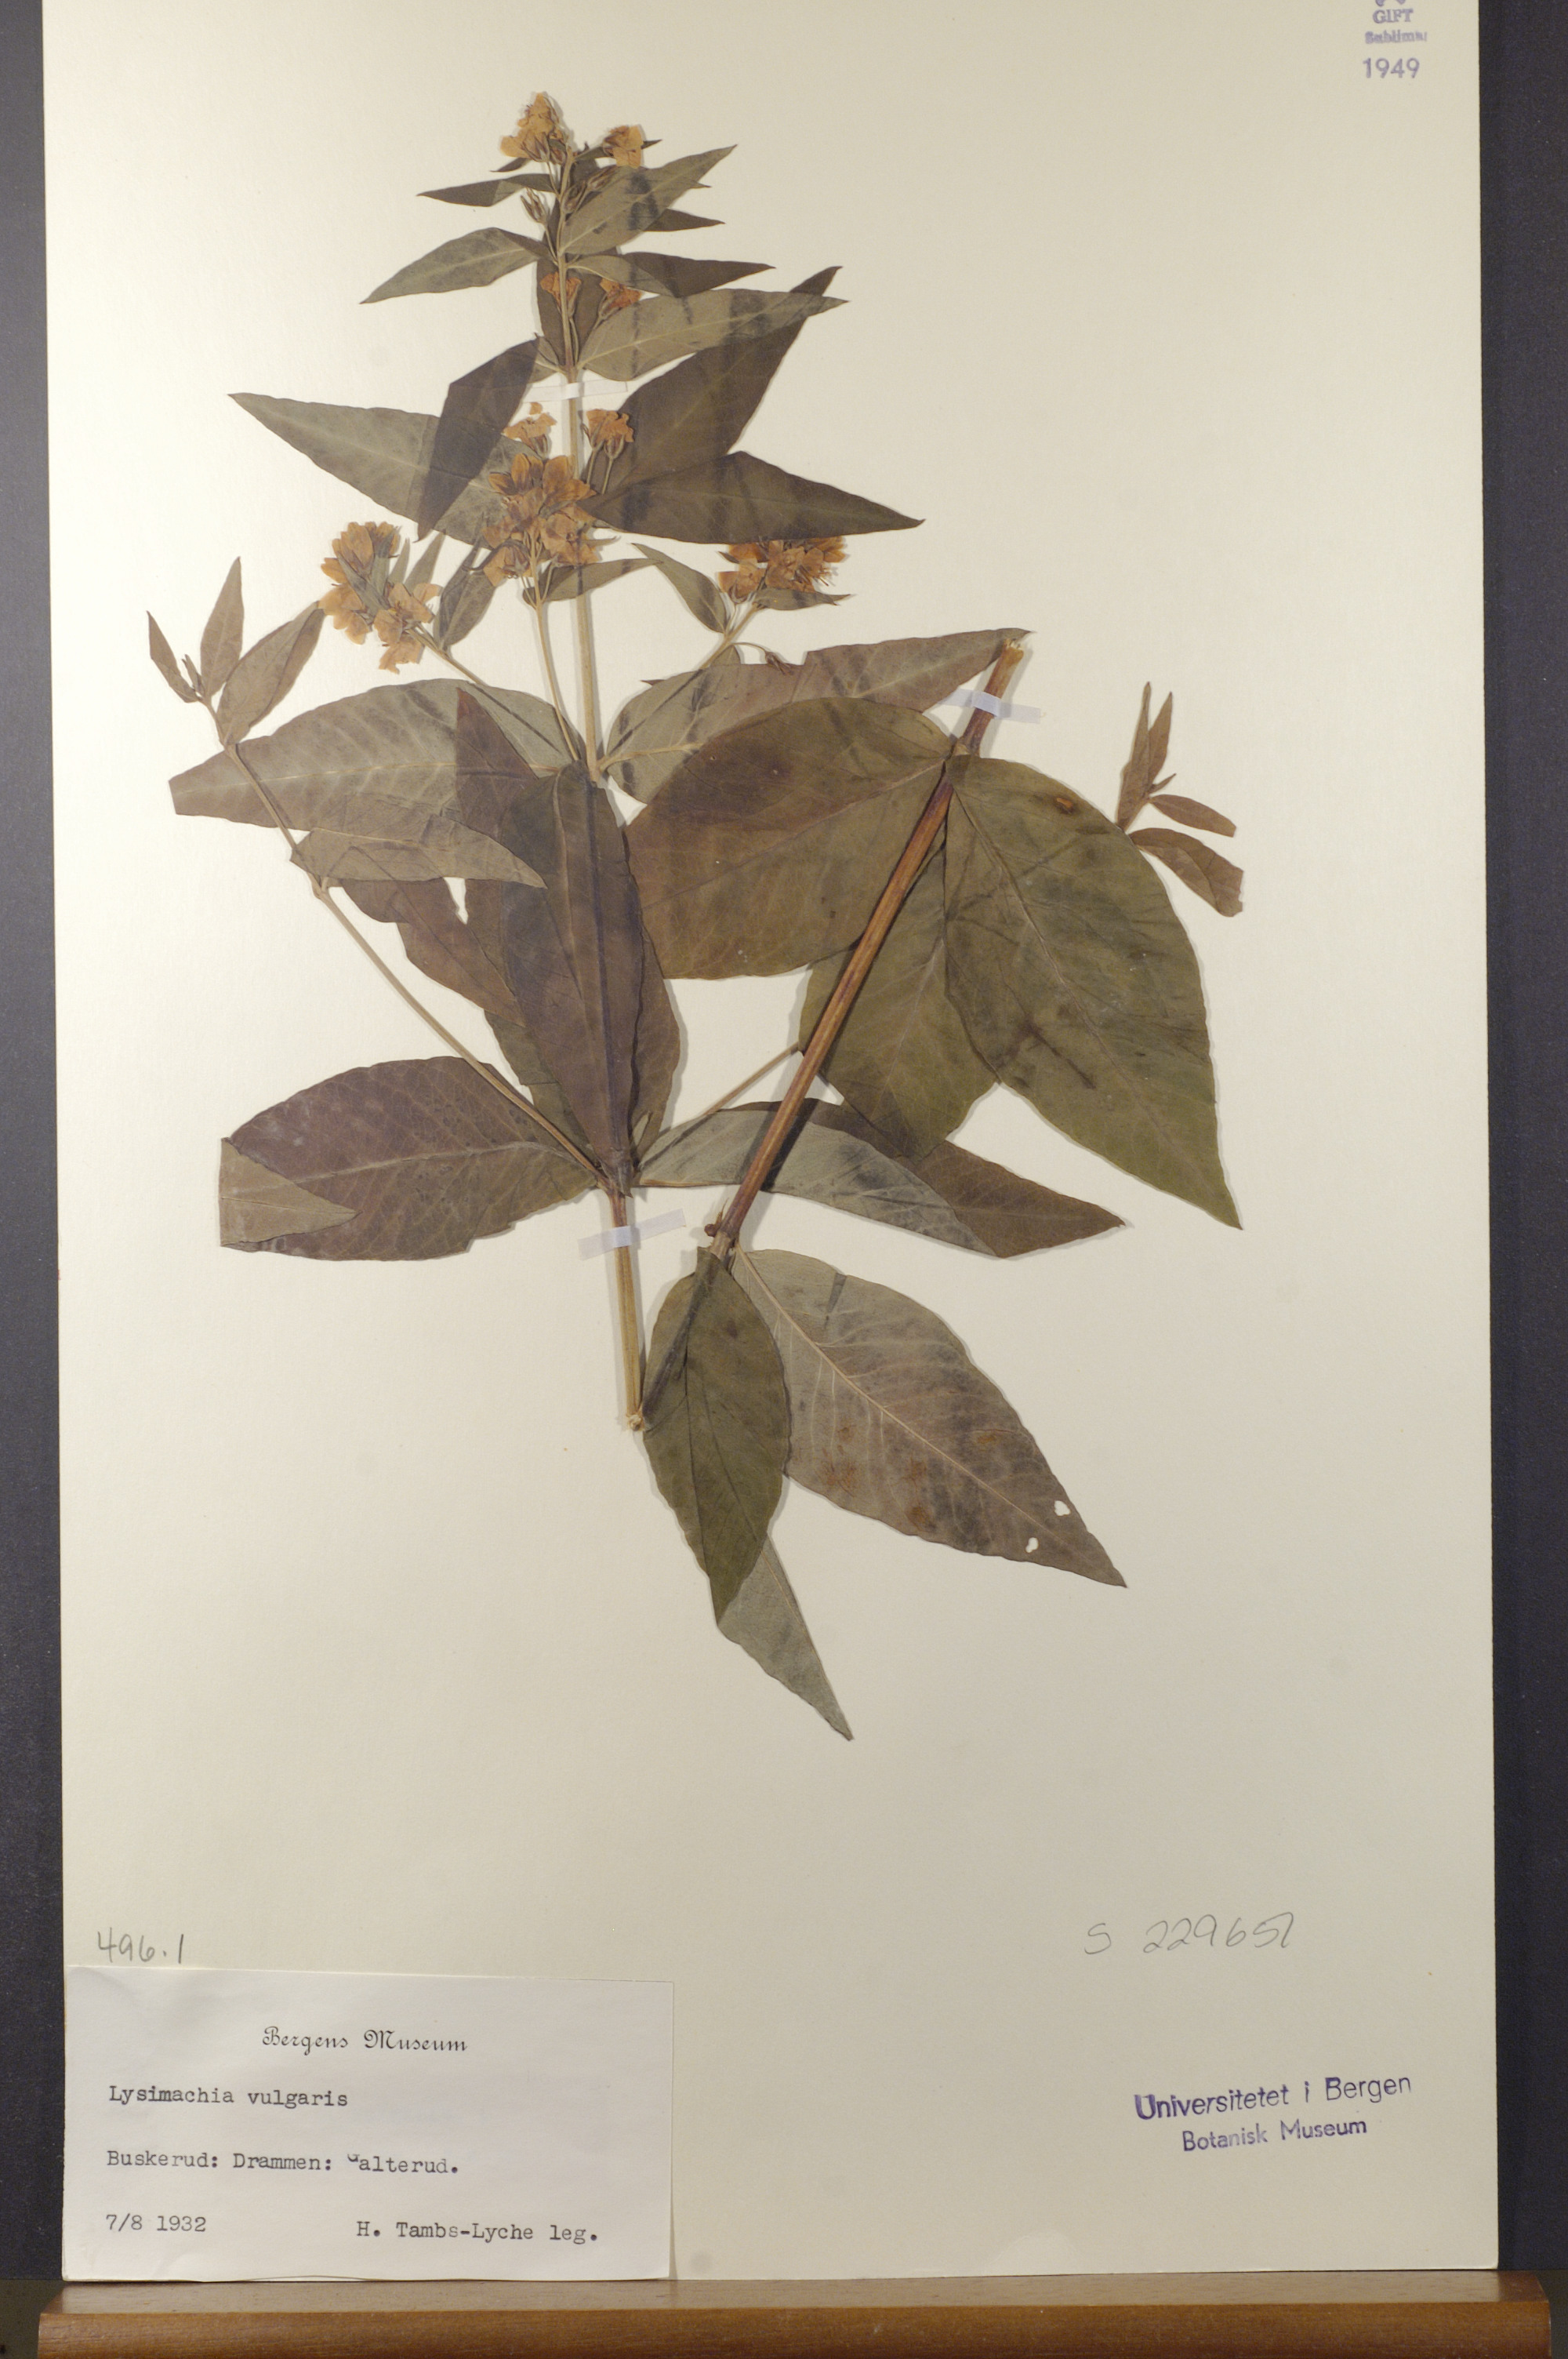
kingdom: Plantae
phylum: Tracheophyta
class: Magnoliopsida
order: Ericales
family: Primulaceae
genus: Lysimachia
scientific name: Lysimachia vulgaris
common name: Yellow loosestrife
